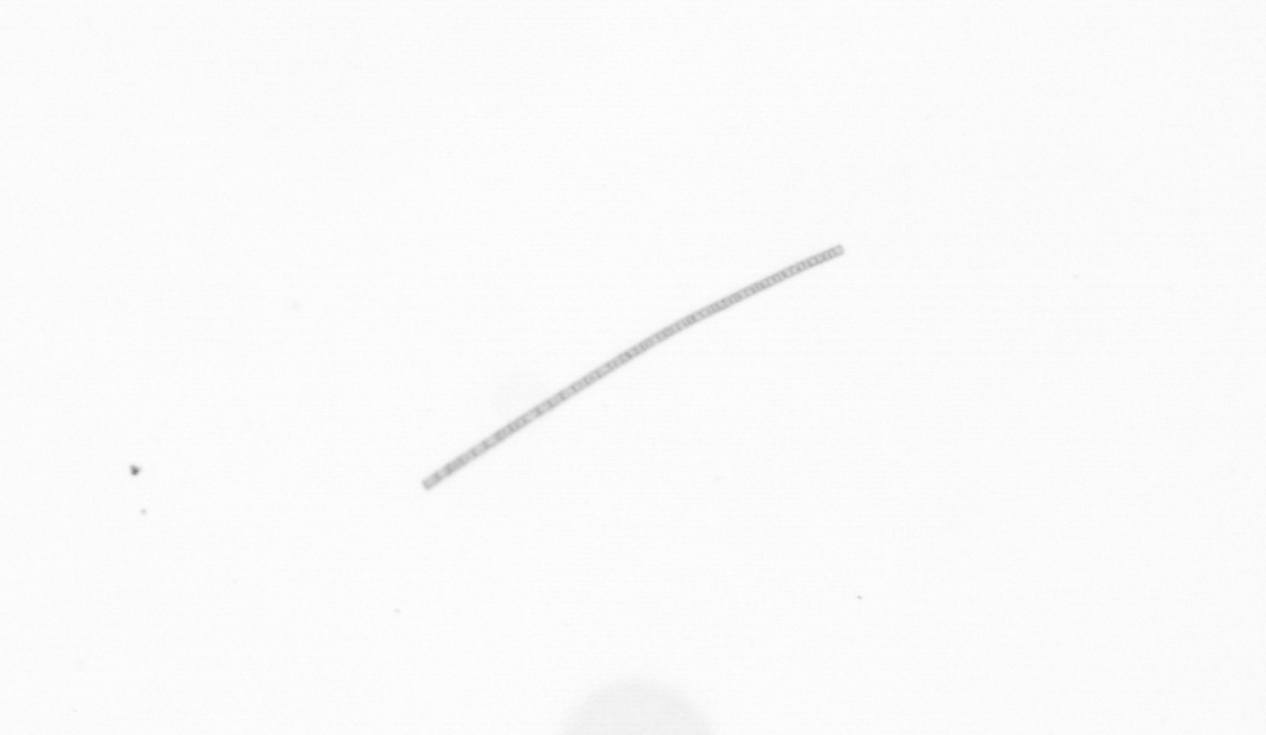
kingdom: Chromista
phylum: Ochrophyta
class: Bacillariophyceae
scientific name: Bacillariophyceae
